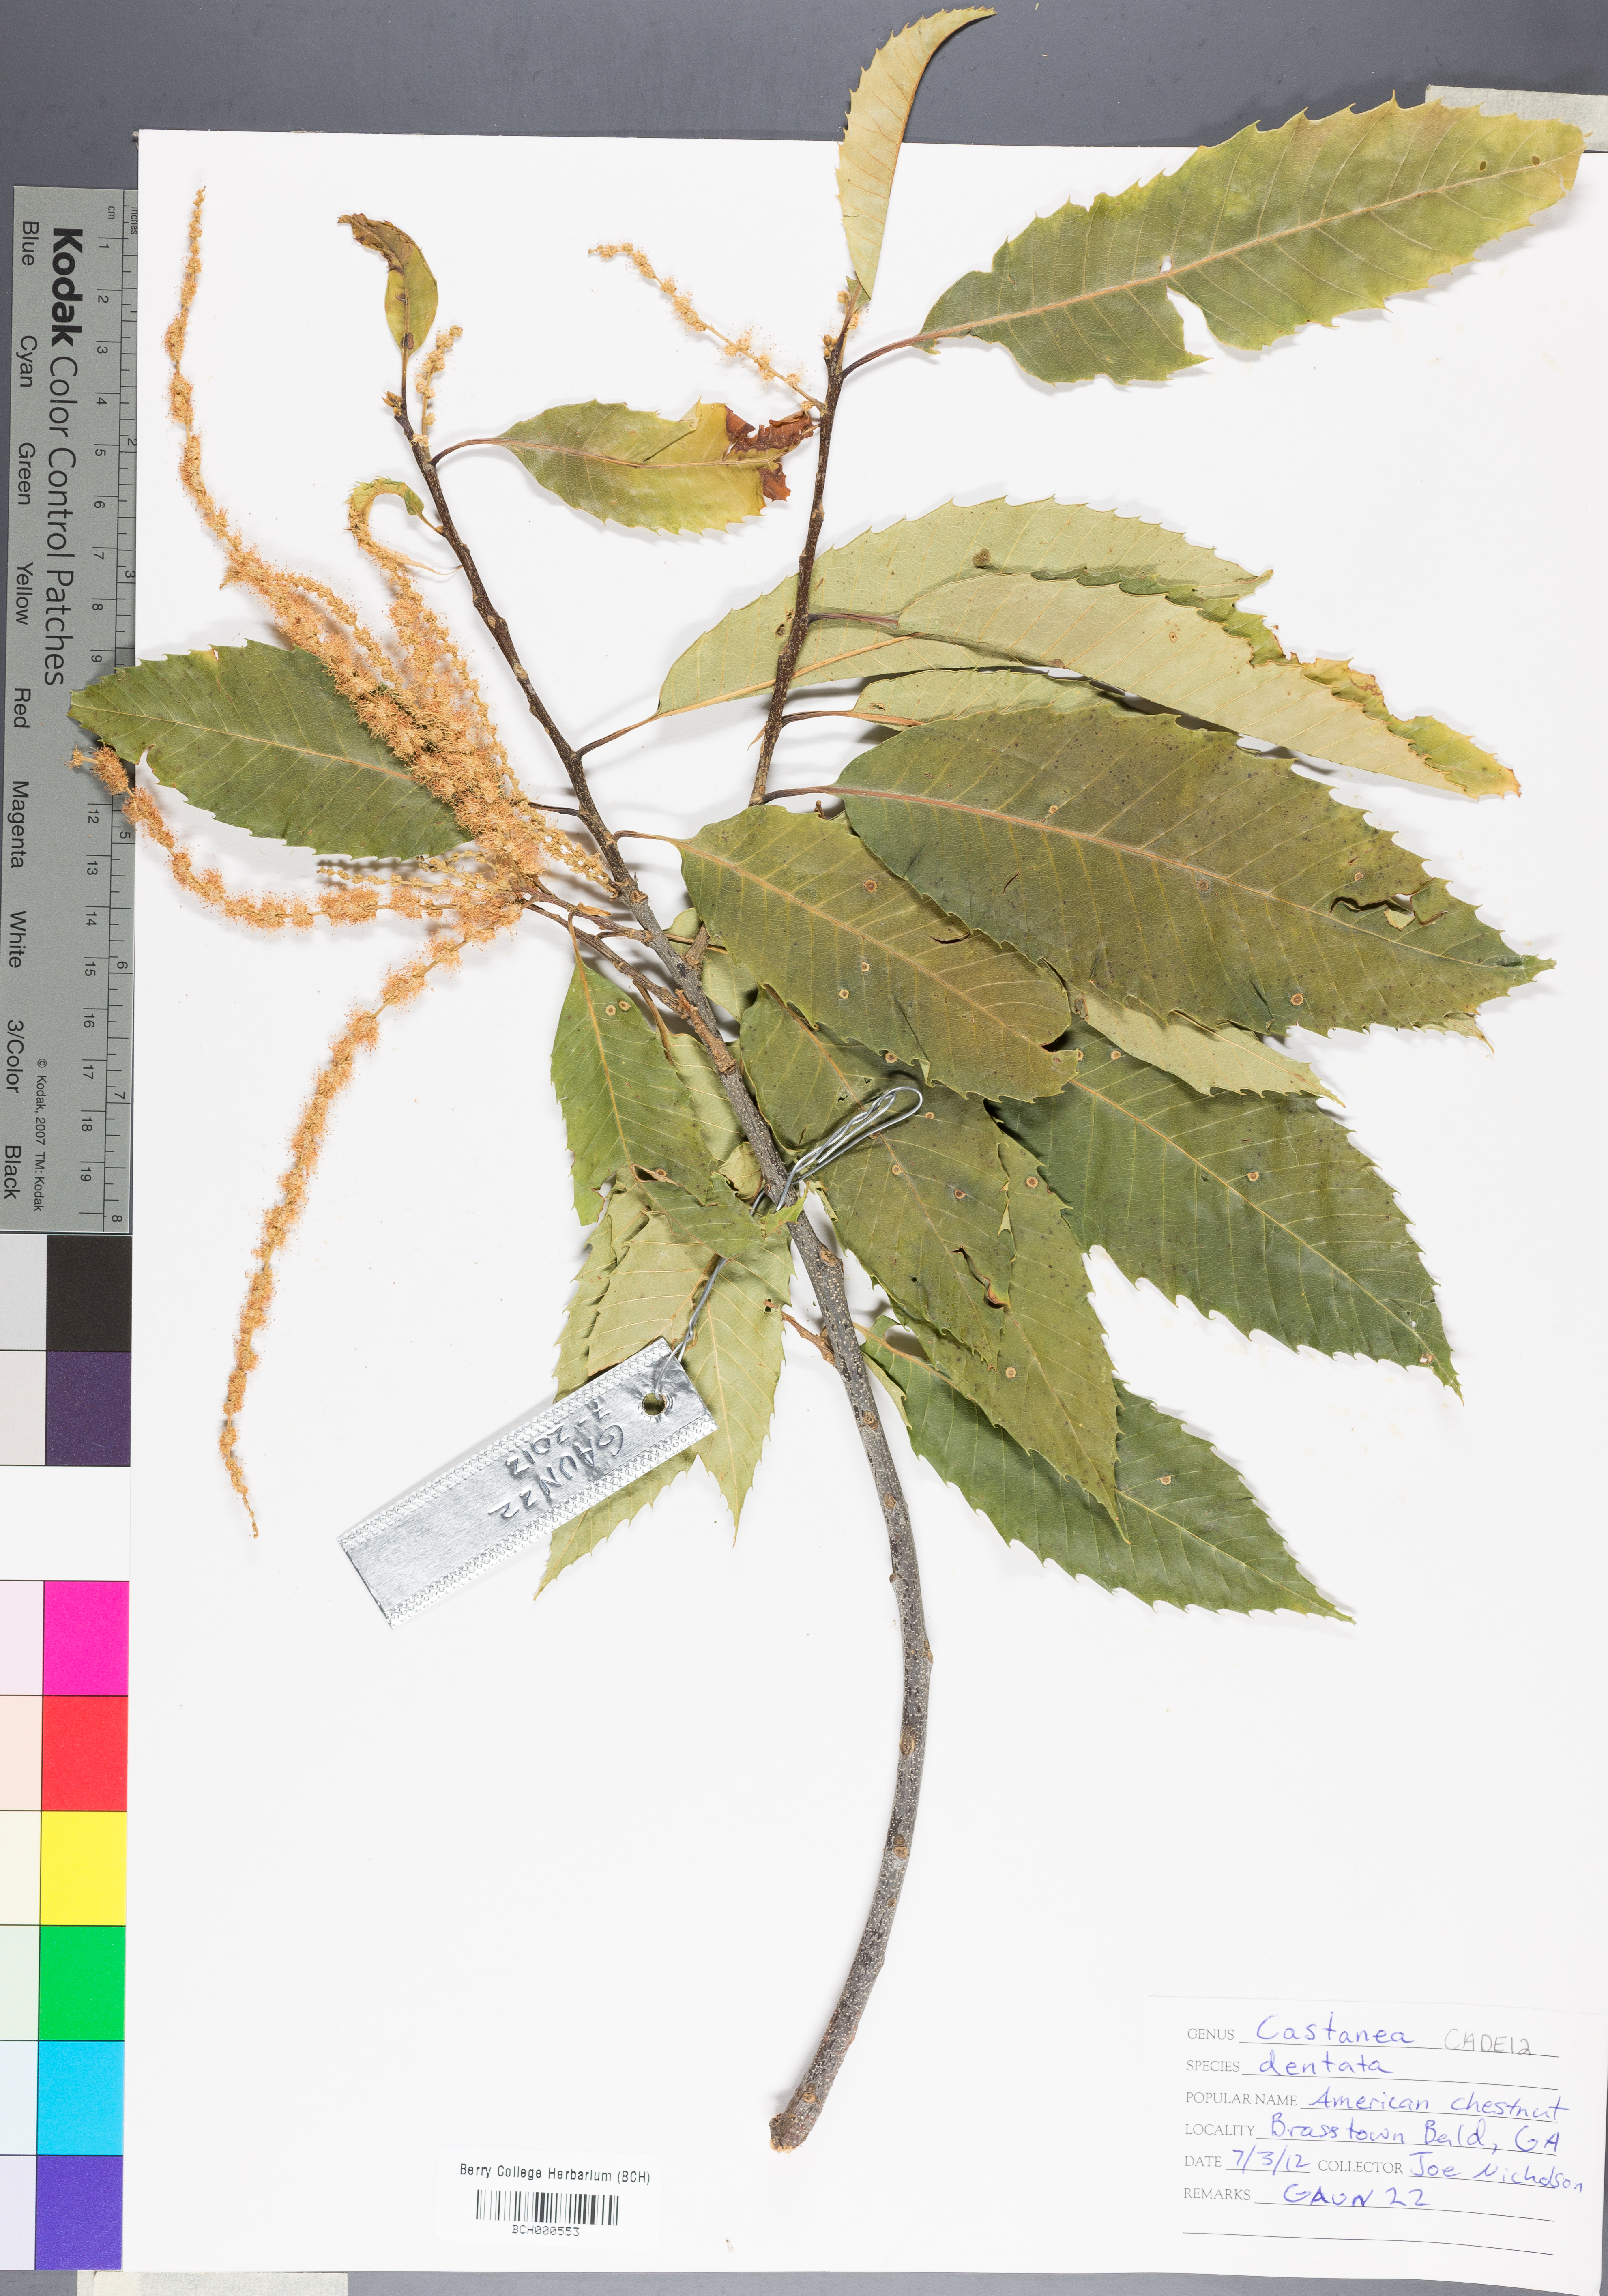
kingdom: Plantae
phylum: Tracheophyta
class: Magnoliopsida
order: Fagales
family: Fagaceae
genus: Castanea
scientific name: Castanea dentata
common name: American chestnut
